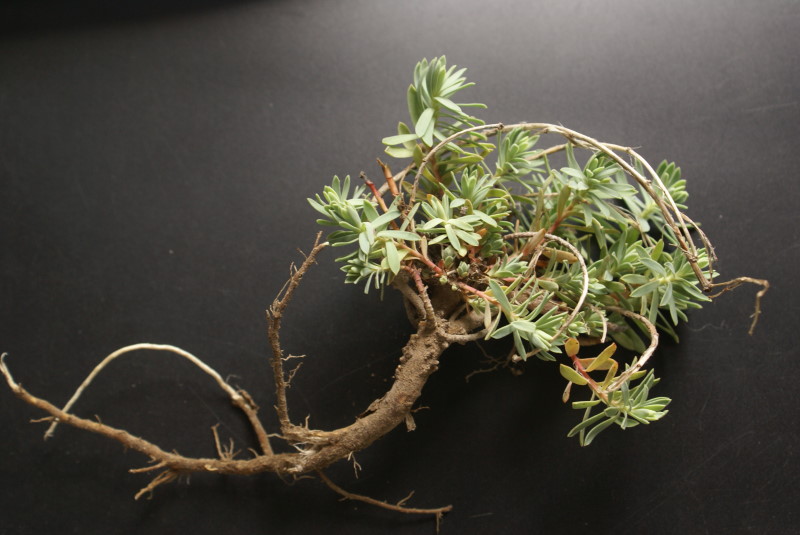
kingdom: Plantae
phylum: Tracheophyta
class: Magnoliopsida
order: Caryophyllales
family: Amaranthaceae
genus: Camphorosma
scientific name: Camphorosma monspeliaca
